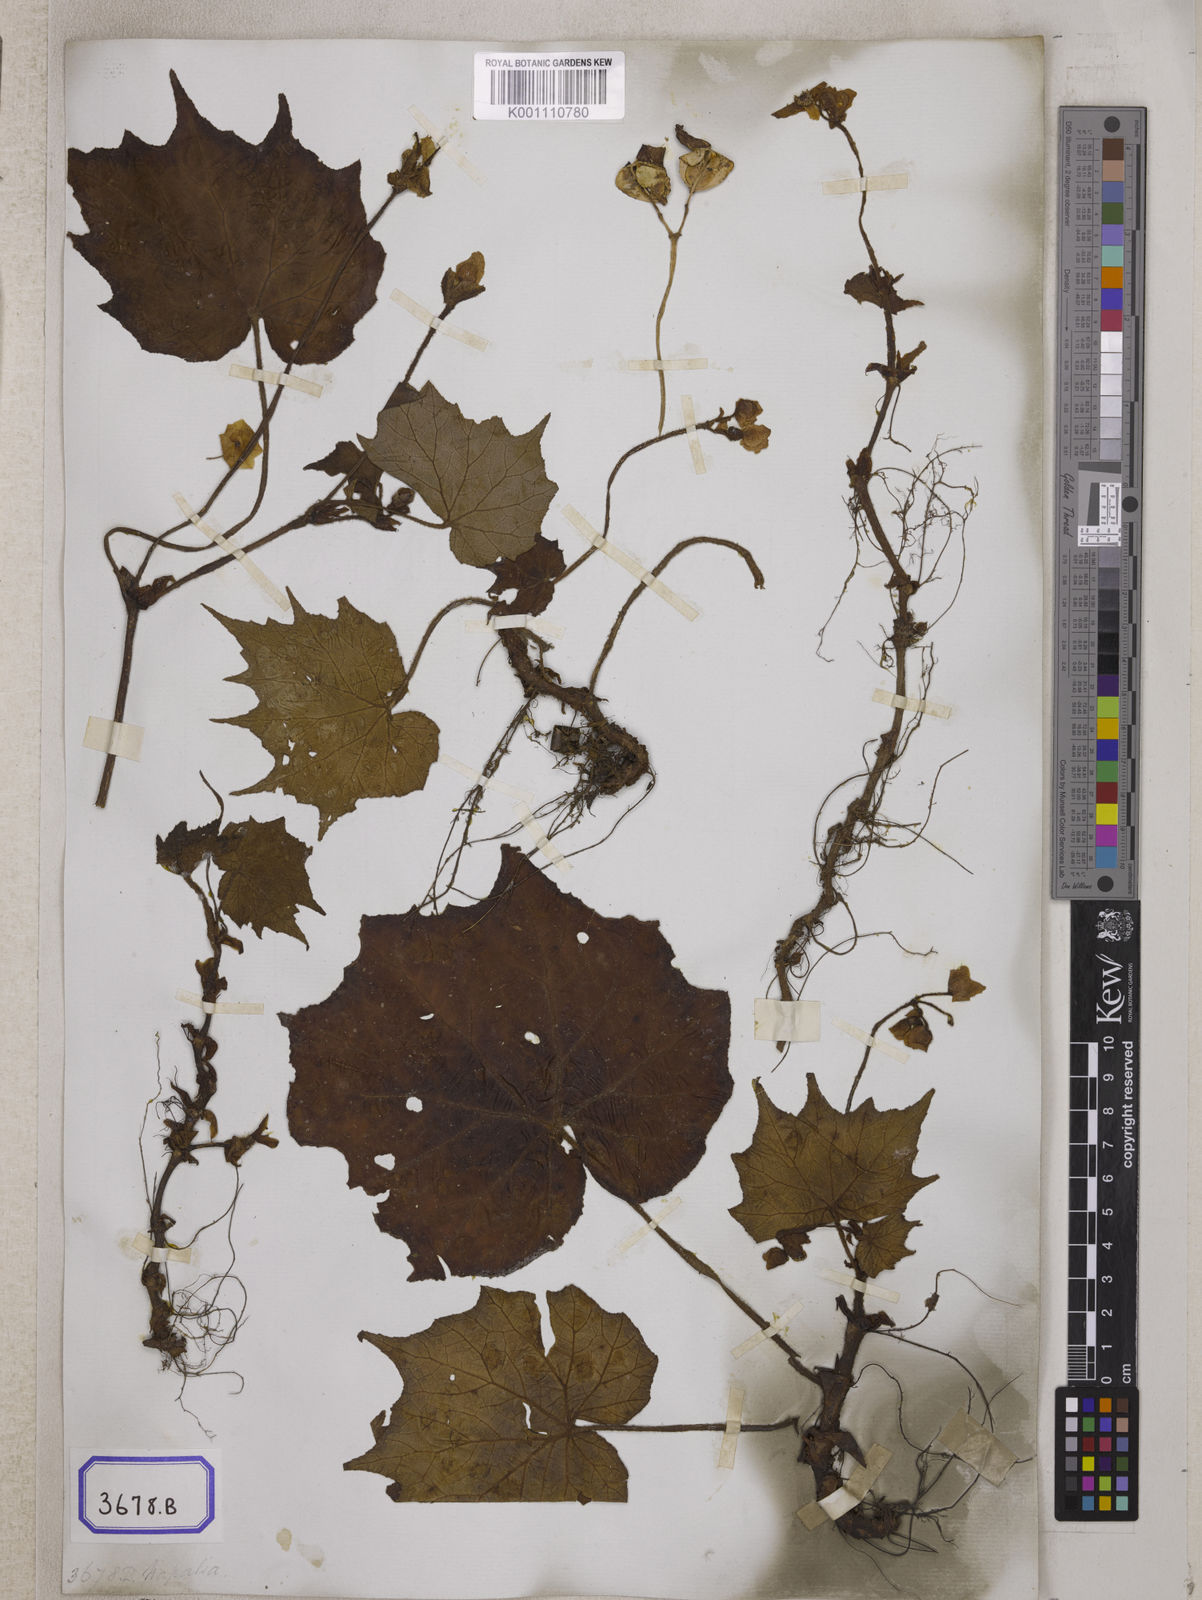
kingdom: Plantae
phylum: Tracheophyta
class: Magnoliopsida
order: Cucurbitales
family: Begoniaceae
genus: Begonia
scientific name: Begonia palmata
